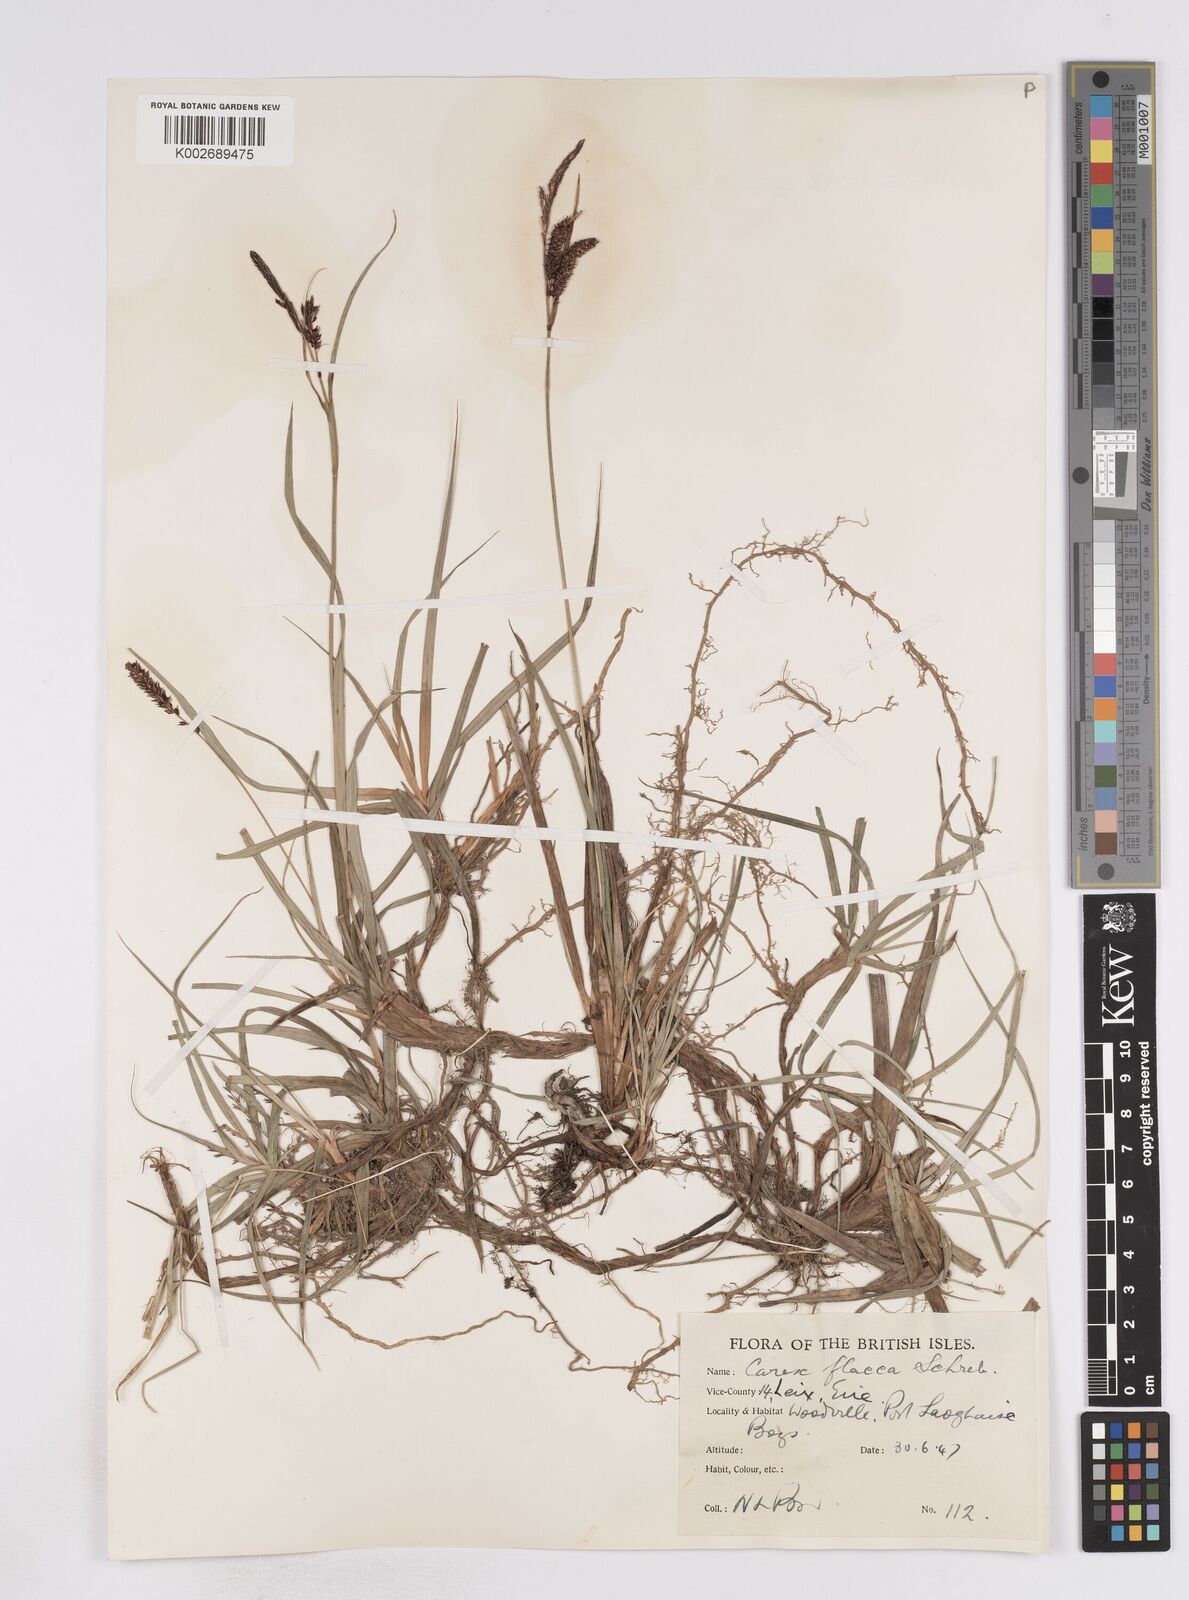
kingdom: Plantae
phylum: Tracheophyta
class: Liliopsida
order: Poales
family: Cyperaceae
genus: Carex
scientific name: Carex flacca
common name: Glaucous sedge
